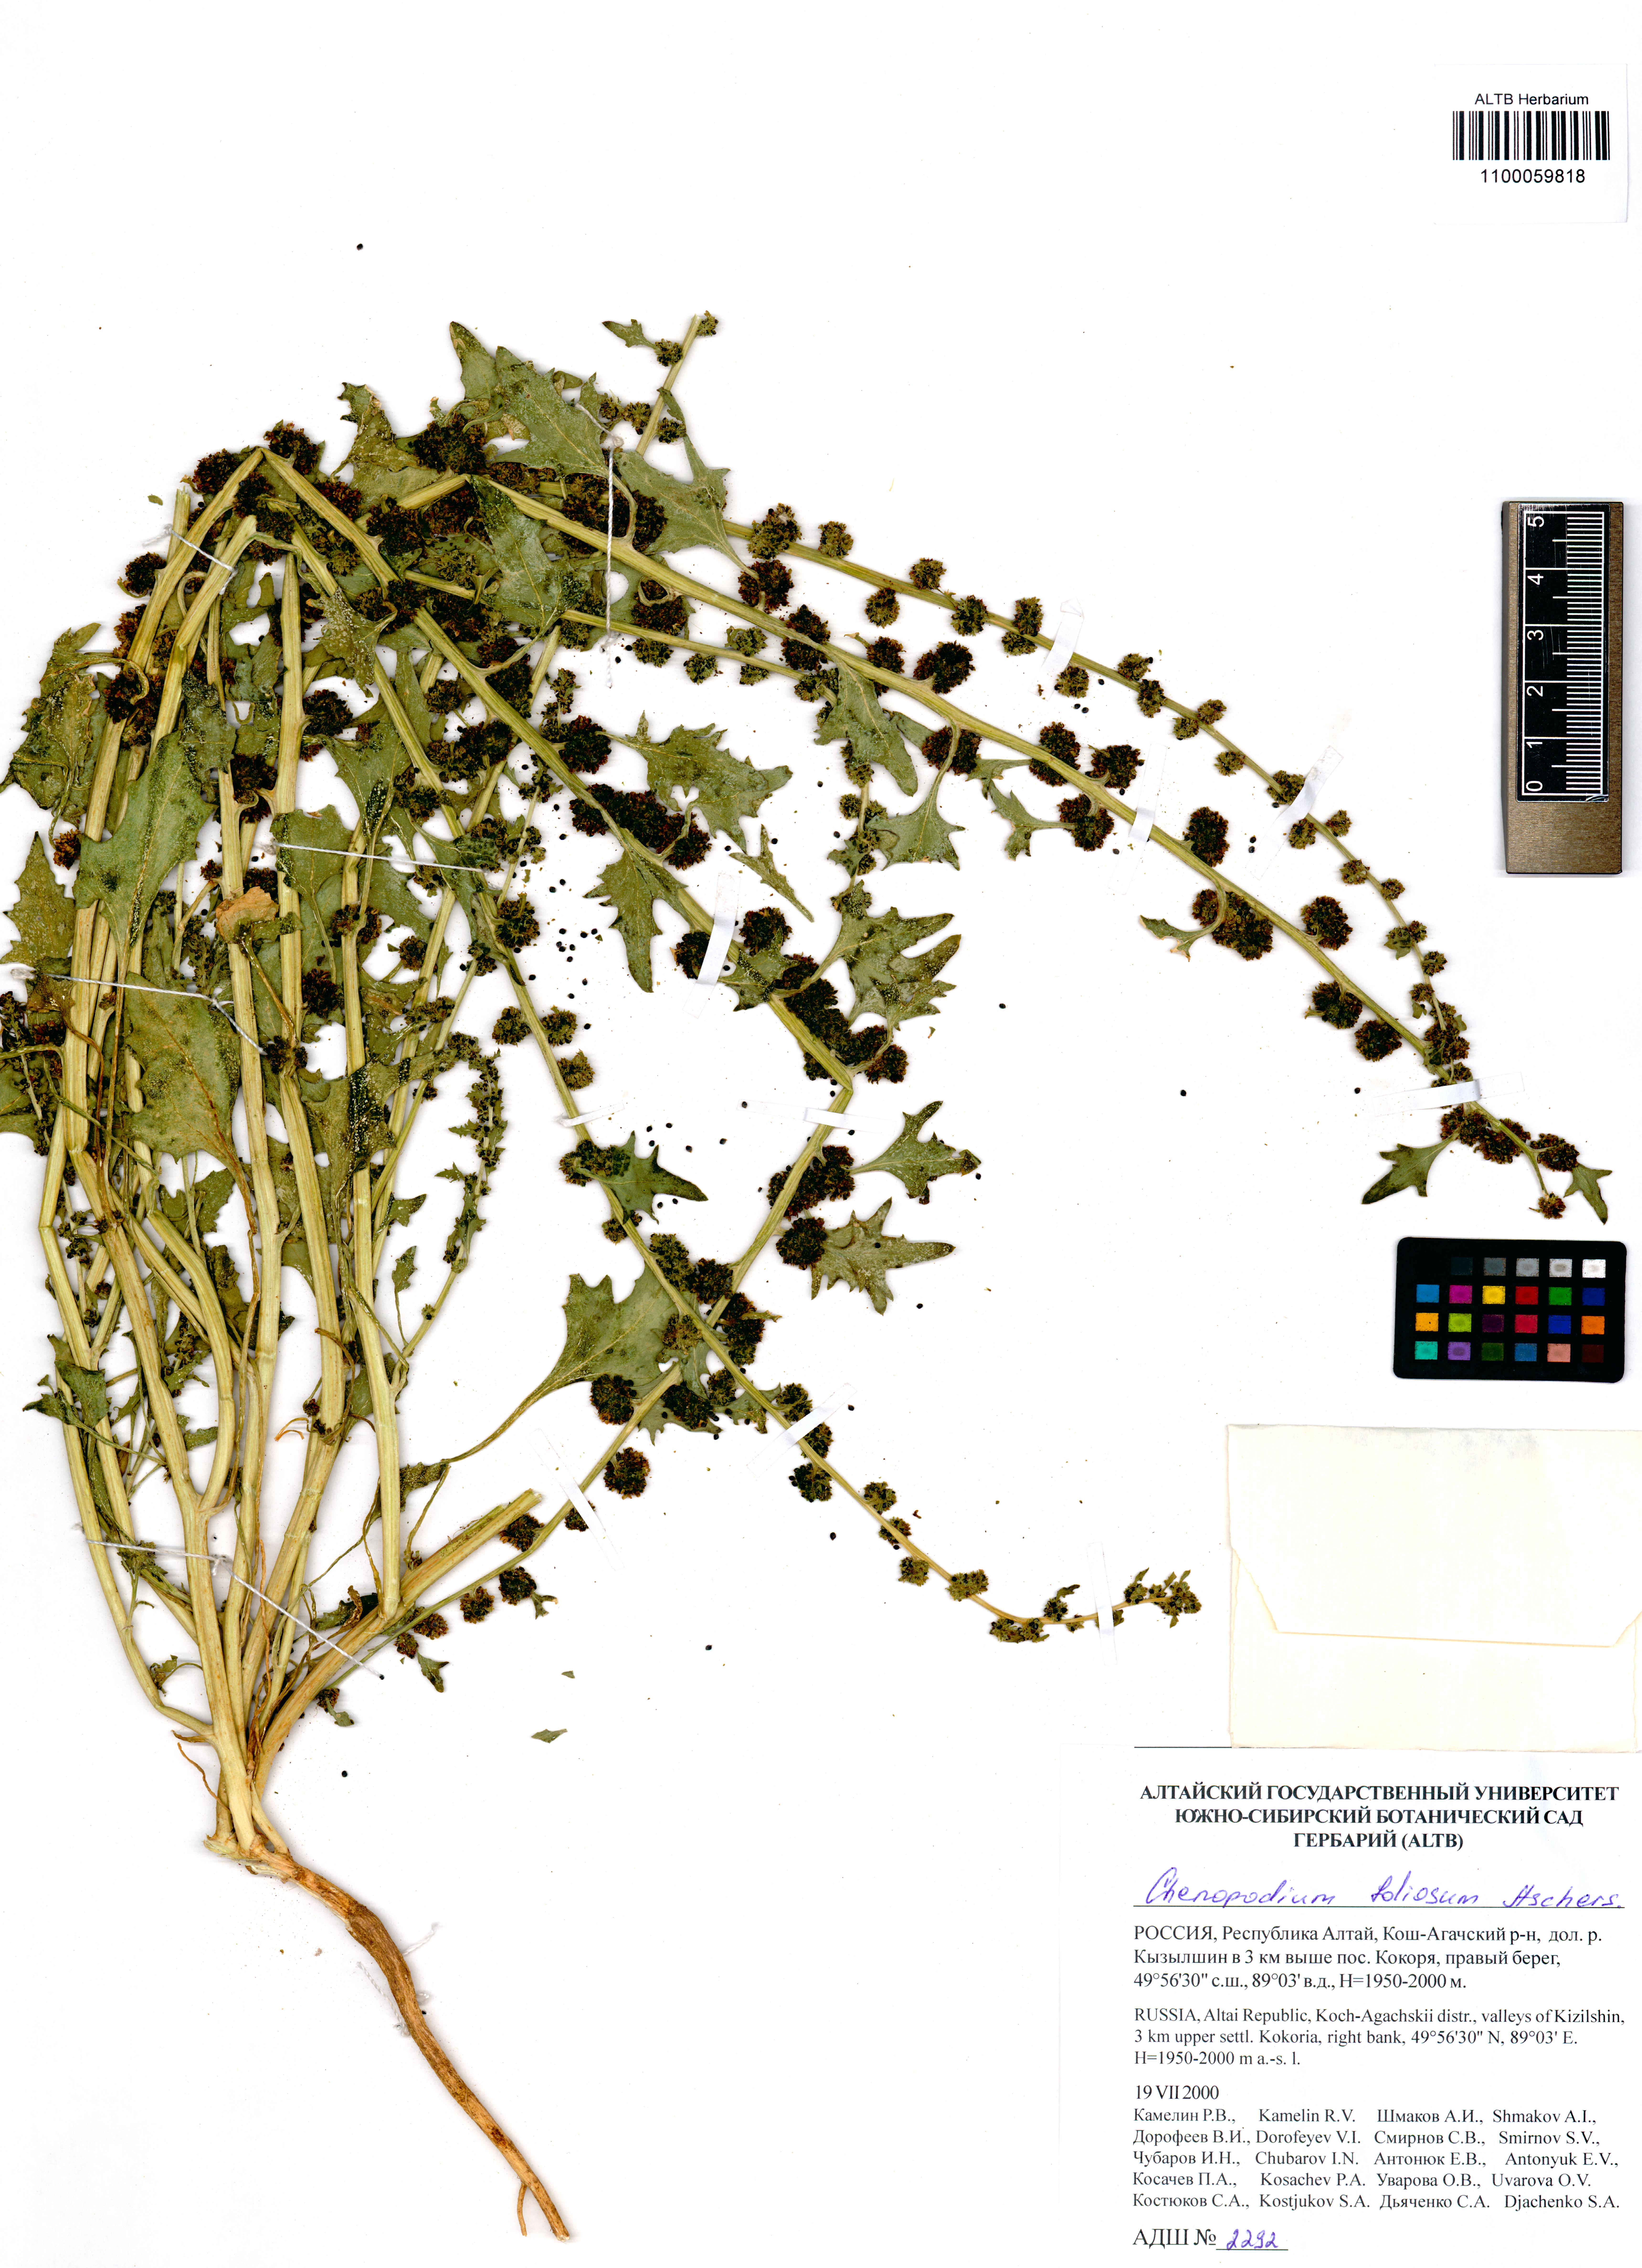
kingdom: Plantae
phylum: Tracheophyta
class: Magnoliopsida
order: Caryophyllales
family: Amaranthaceae
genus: Blitum
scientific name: Blitum virgatum
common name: Strawberry goosefoot
